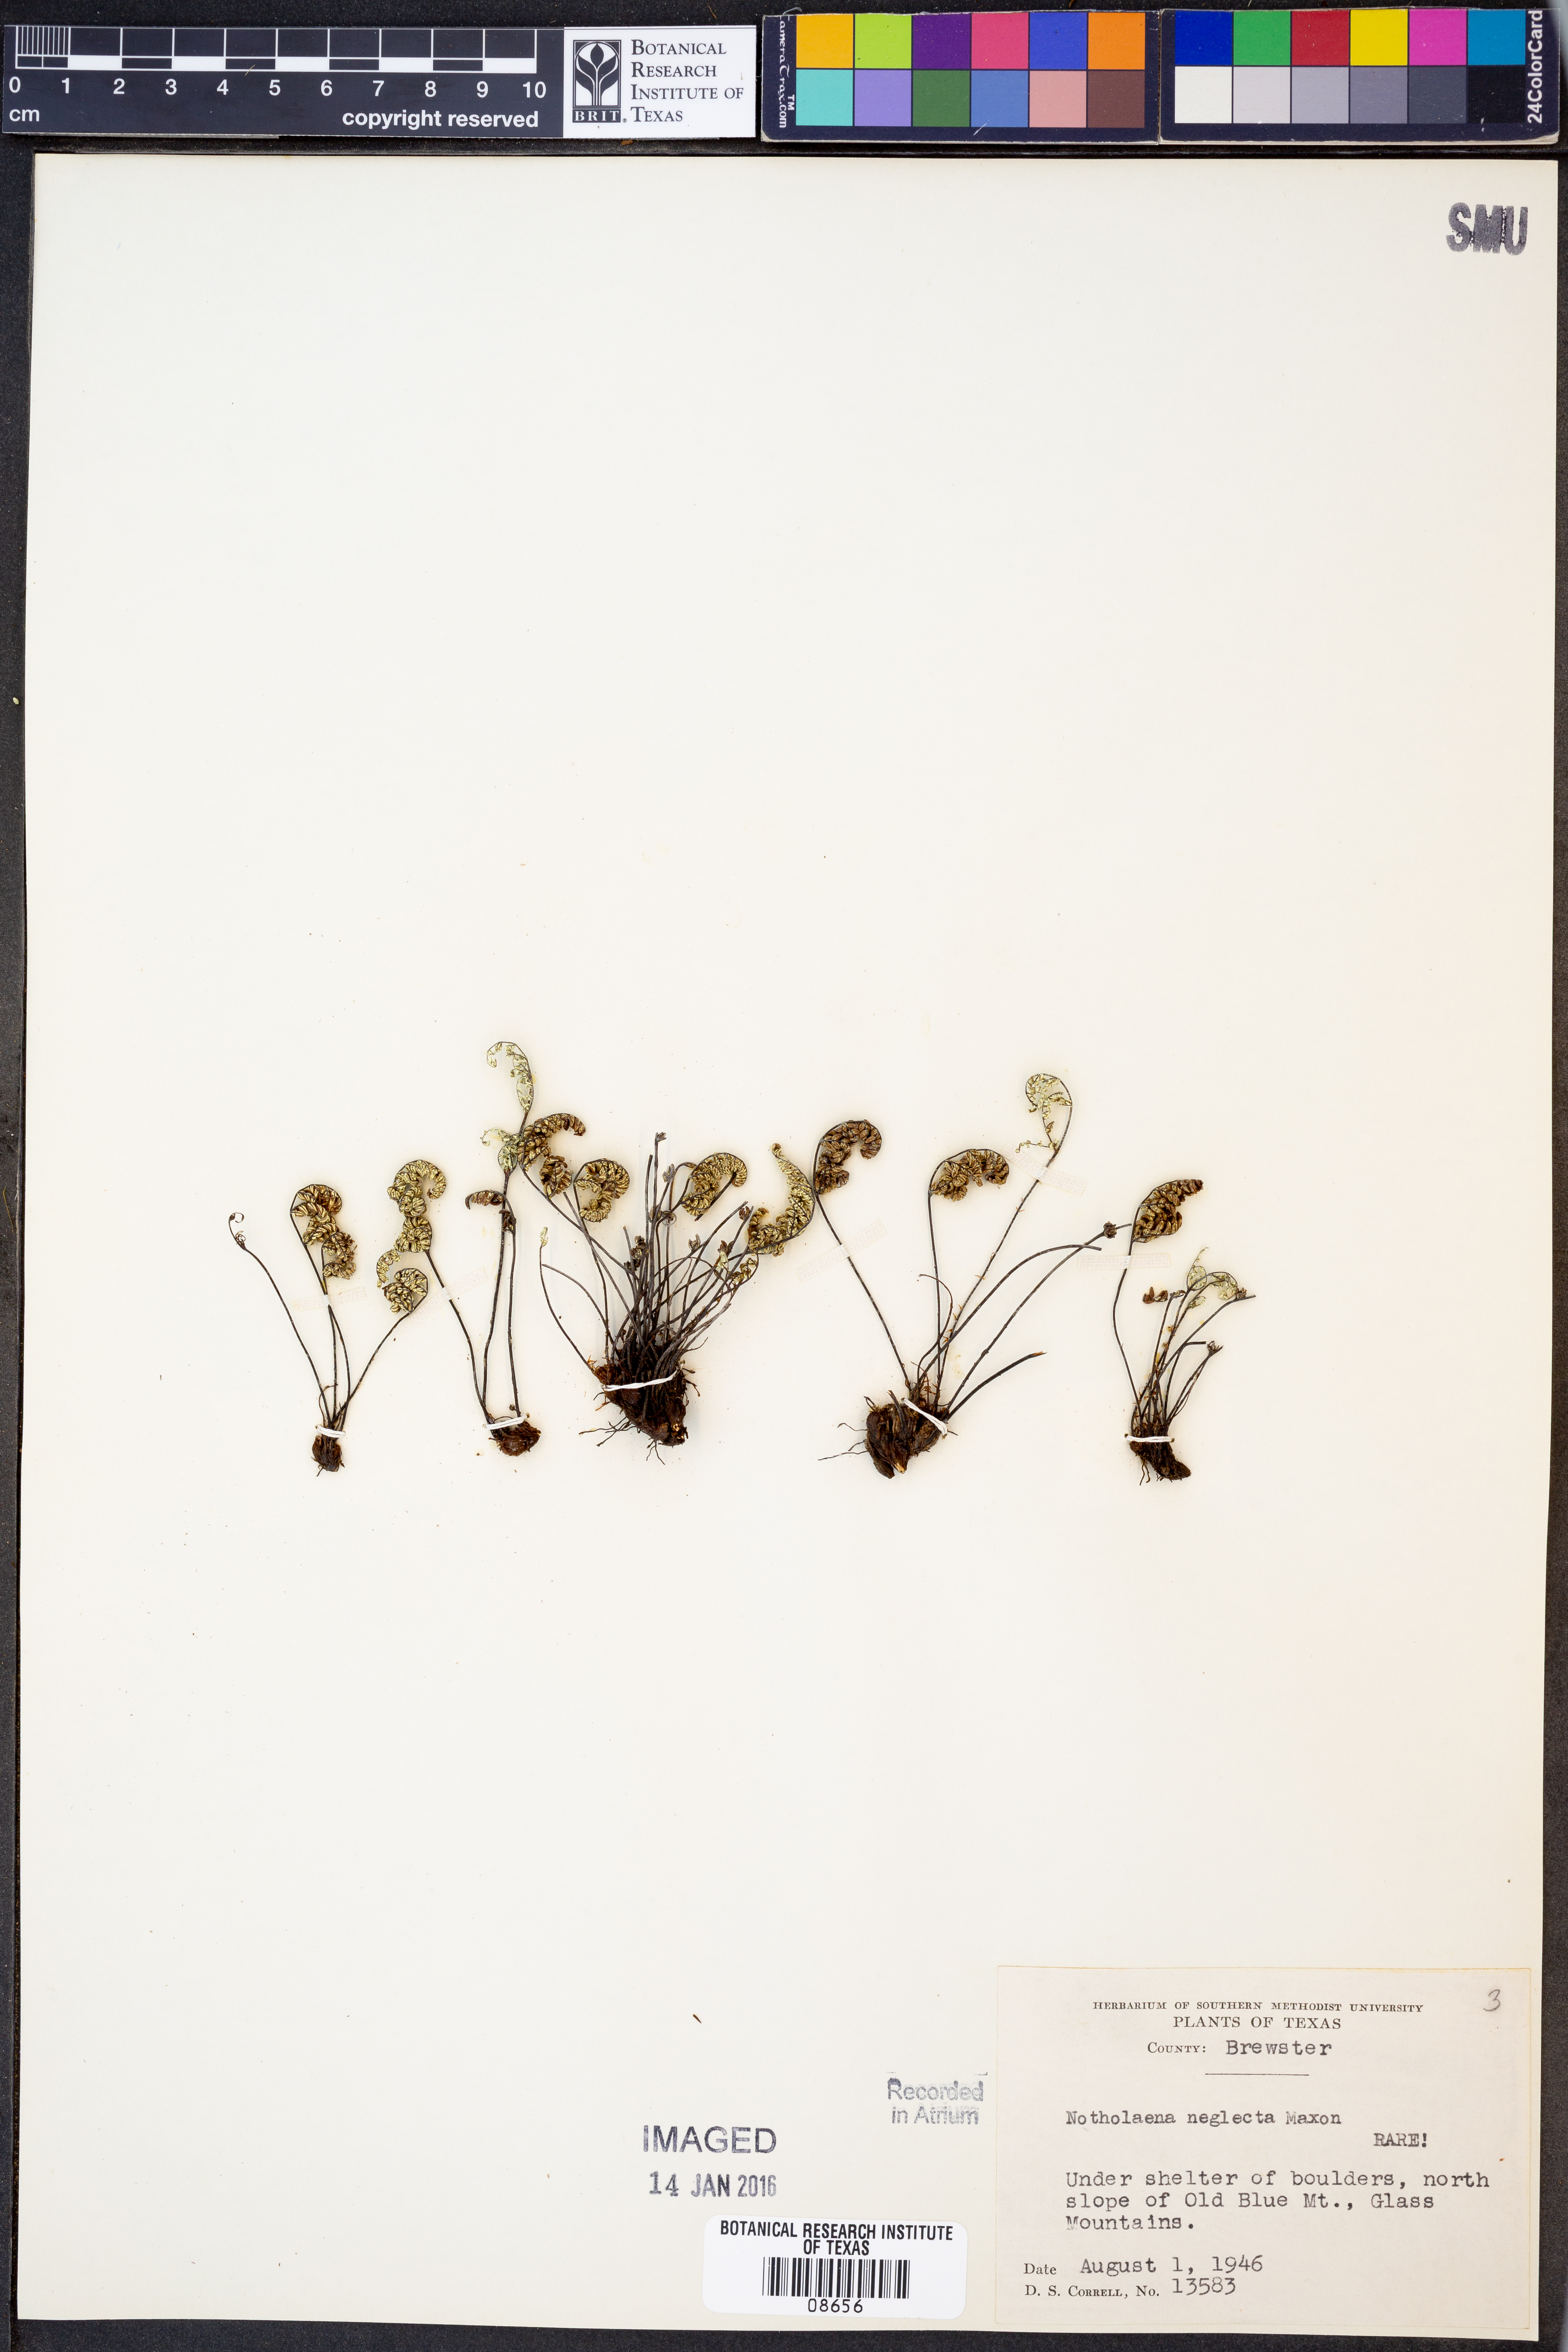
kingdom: Plantae
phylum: Tracheophyta
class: Polypodiopsida
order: Polypodiales
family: Pteridaceae
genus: Notholaena
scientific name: Notholaena neglecta
